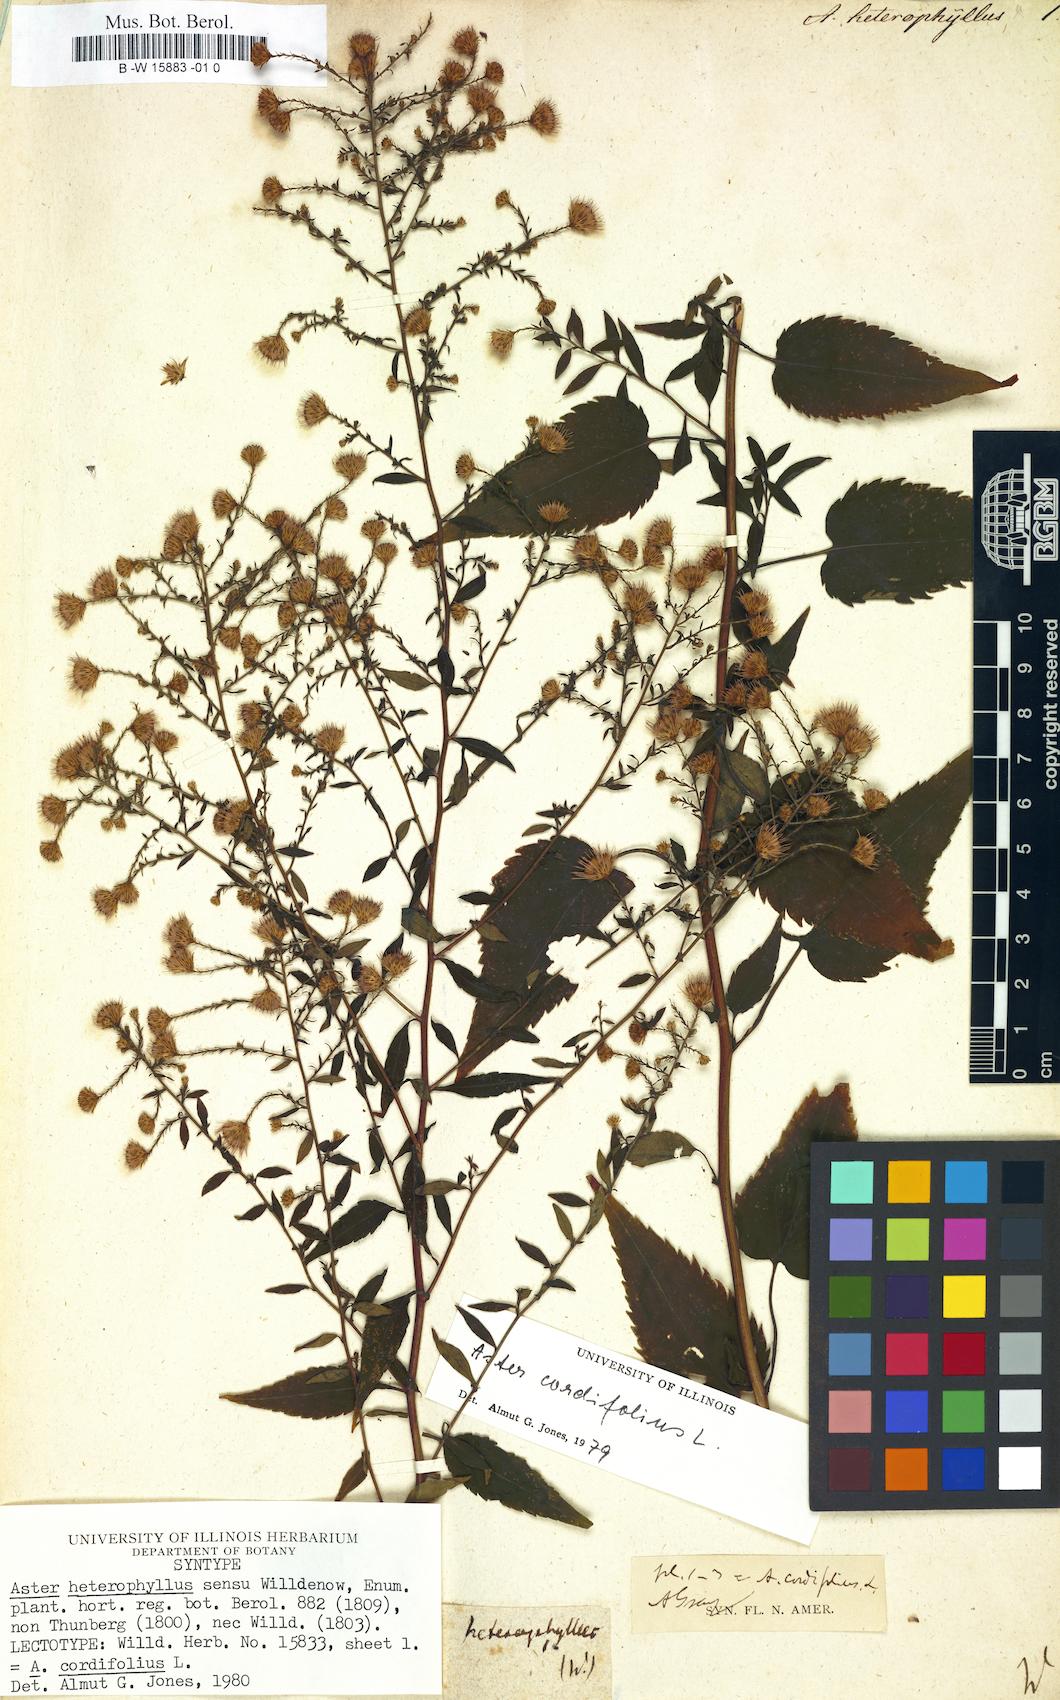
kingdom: Plantae
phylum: Tracheophyta
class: Magnoliopsida
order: Asterales
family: Asteraceae
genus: Athrixia
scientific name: Athrixia heterophylla
